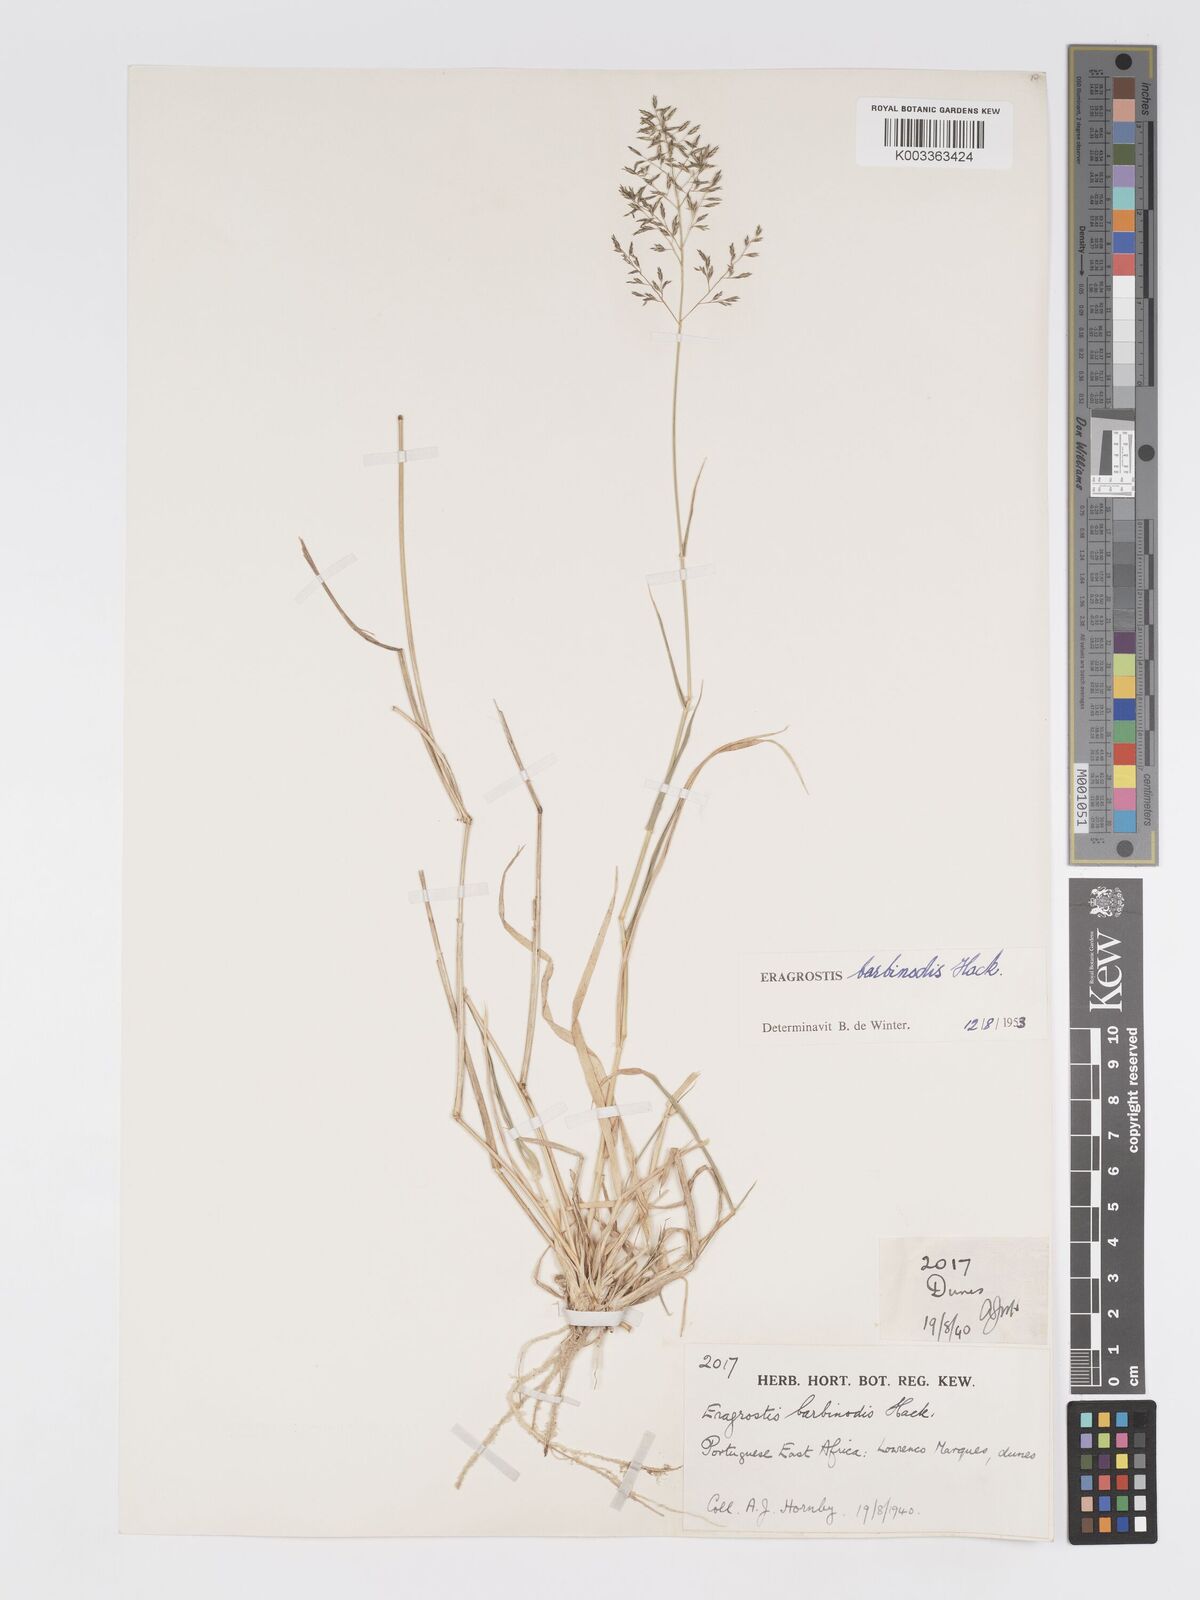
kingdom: Plantae
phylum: Tracheophyta
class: Liliopsida
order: Poales
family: Poaceae
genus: Eragrostis
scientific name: Eragrostis barbinodis
